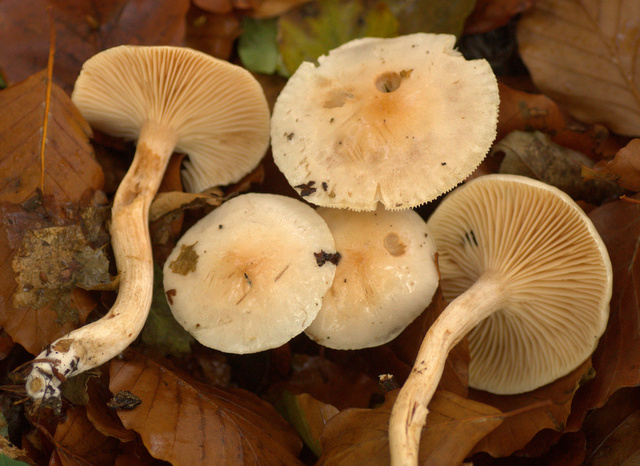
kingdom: Fungi
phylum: Basidiomycota
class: Agaricomycetes
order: Agaricales
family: Hygrophoraceae
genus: Hygrophorus
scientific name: Hygrophorus unicolor
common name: orangeøjet sneglehat
